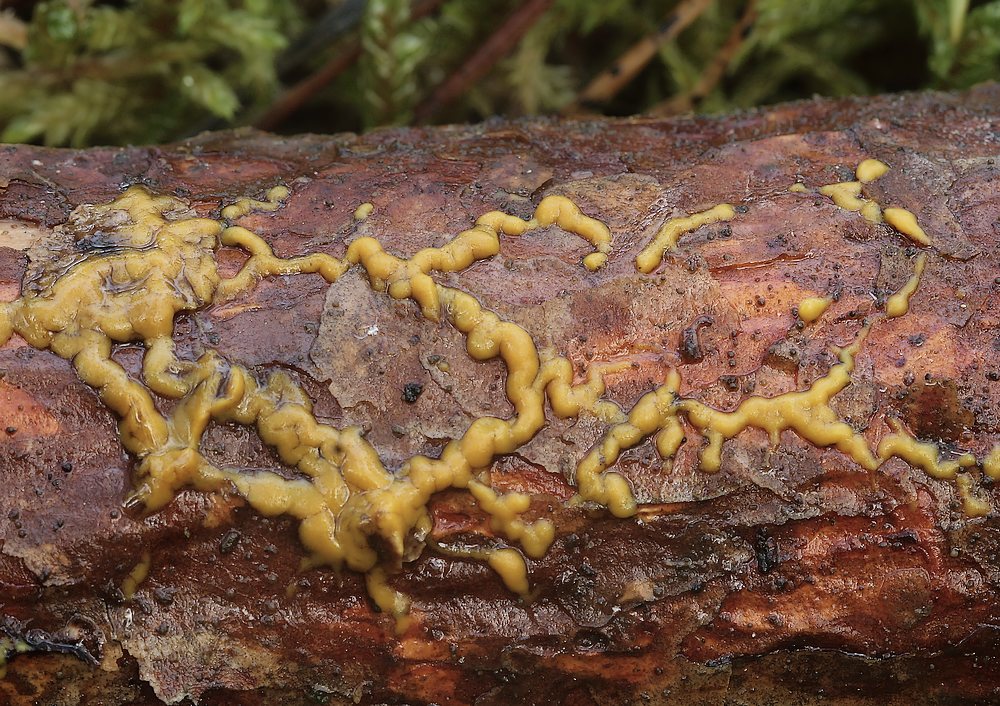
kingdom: Protozoa
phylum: Mycetozoa
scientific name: Mycetozoa
